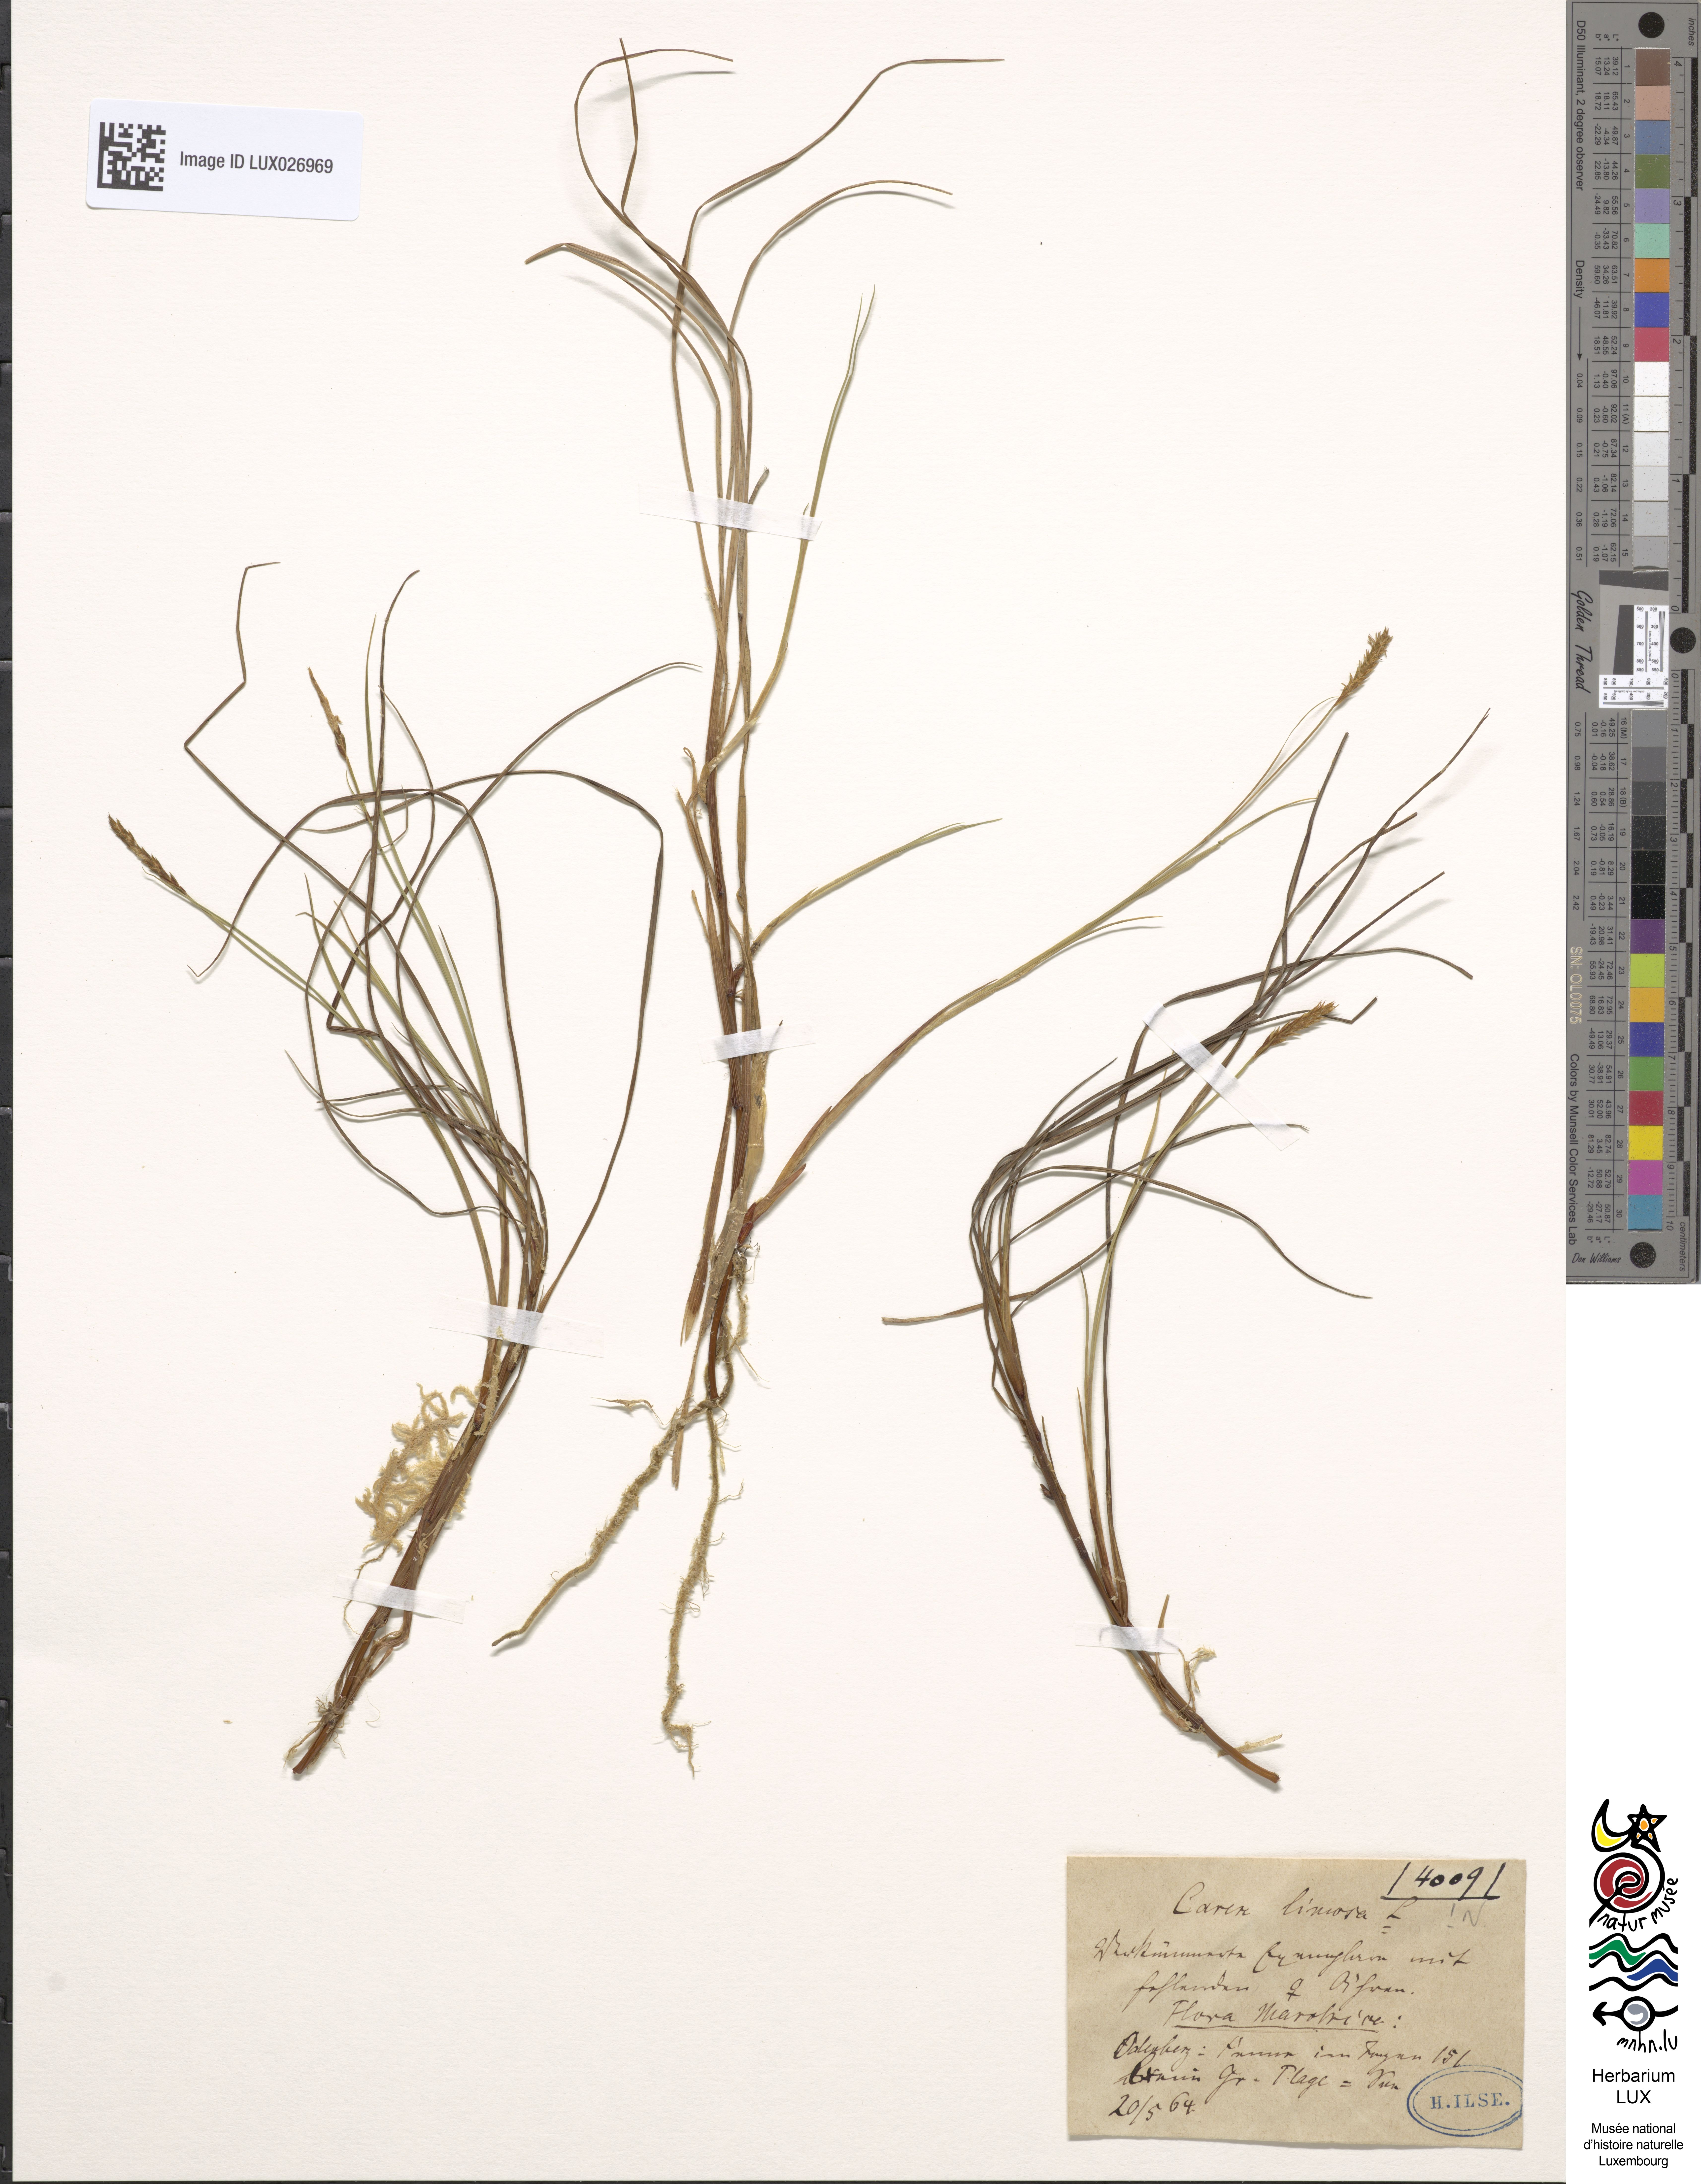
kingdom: Plantae
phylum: Tracheophyta
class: Liliopsida
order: Poales
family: Cyperaceae
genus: Carex
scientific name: Carex limosa
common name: Bog sedge
